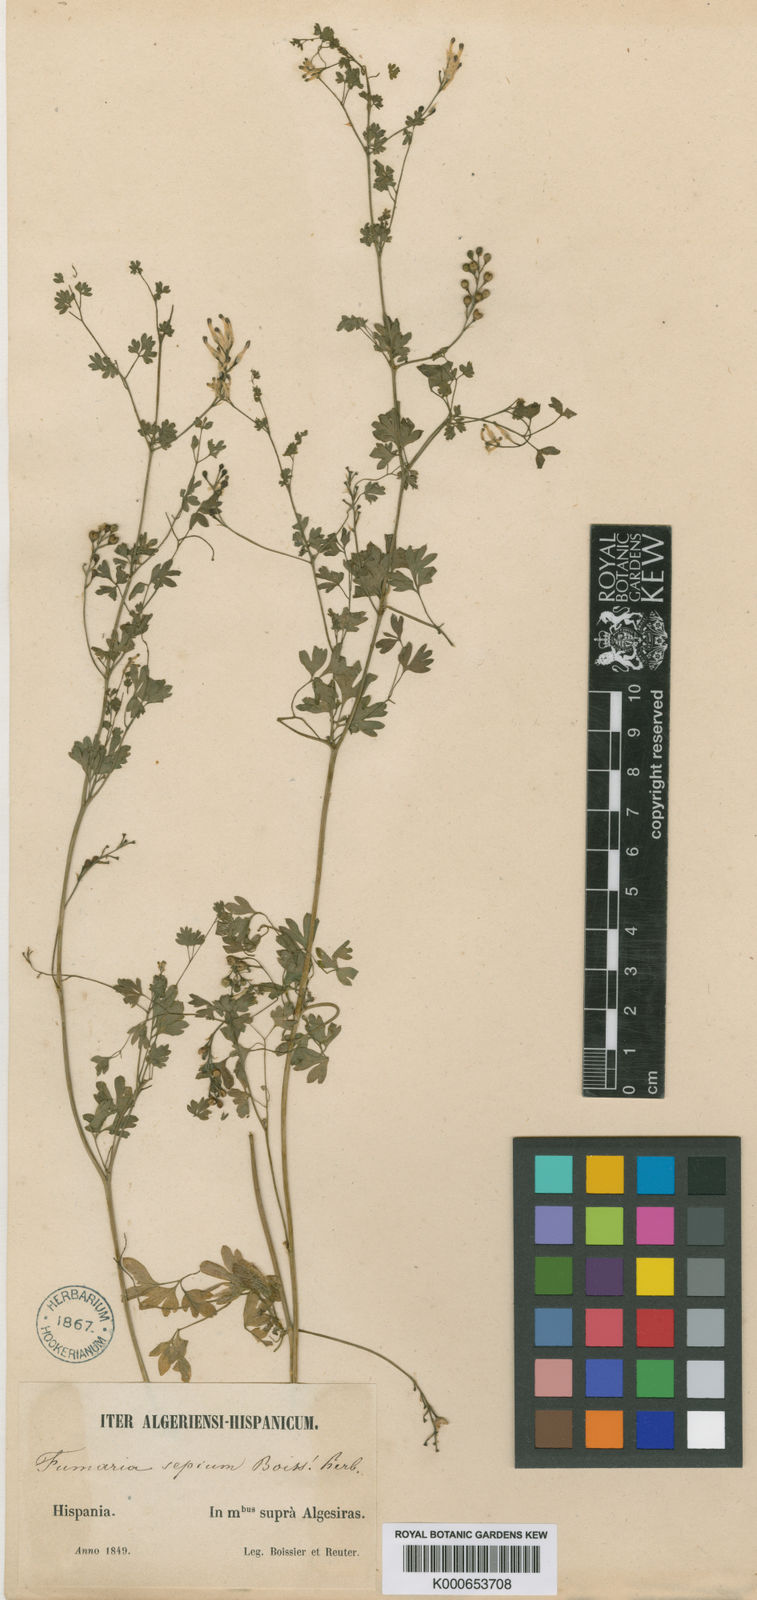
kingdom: Plantae
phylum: Tracheophyta
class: Magnoliopsida
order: Ranunculales
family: Papaveraceae
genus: Fumaria
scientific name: Fumaria sepium
